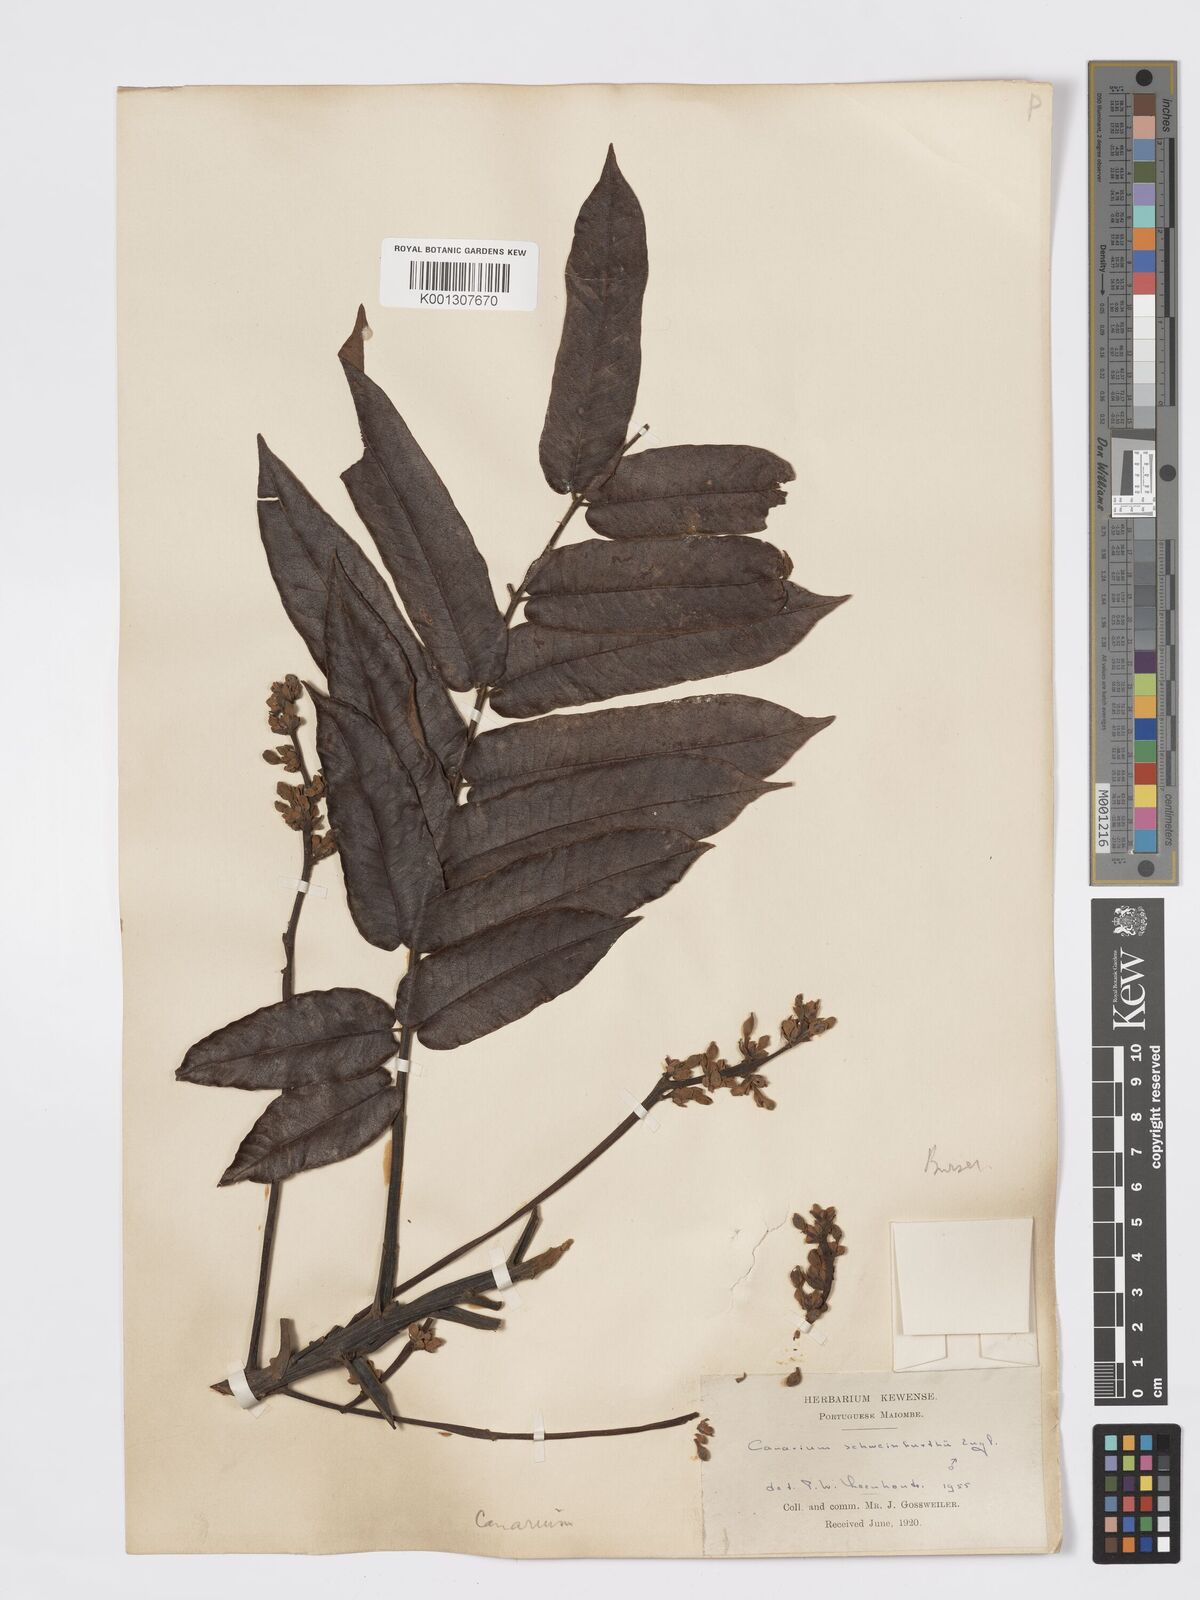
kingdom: Plantae
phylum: Tracheophyta
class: Magnoliopsida
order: Sapindales
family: Burseraceae
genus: Canarium
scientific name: Canarium schweinfurthii
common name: African elemi
